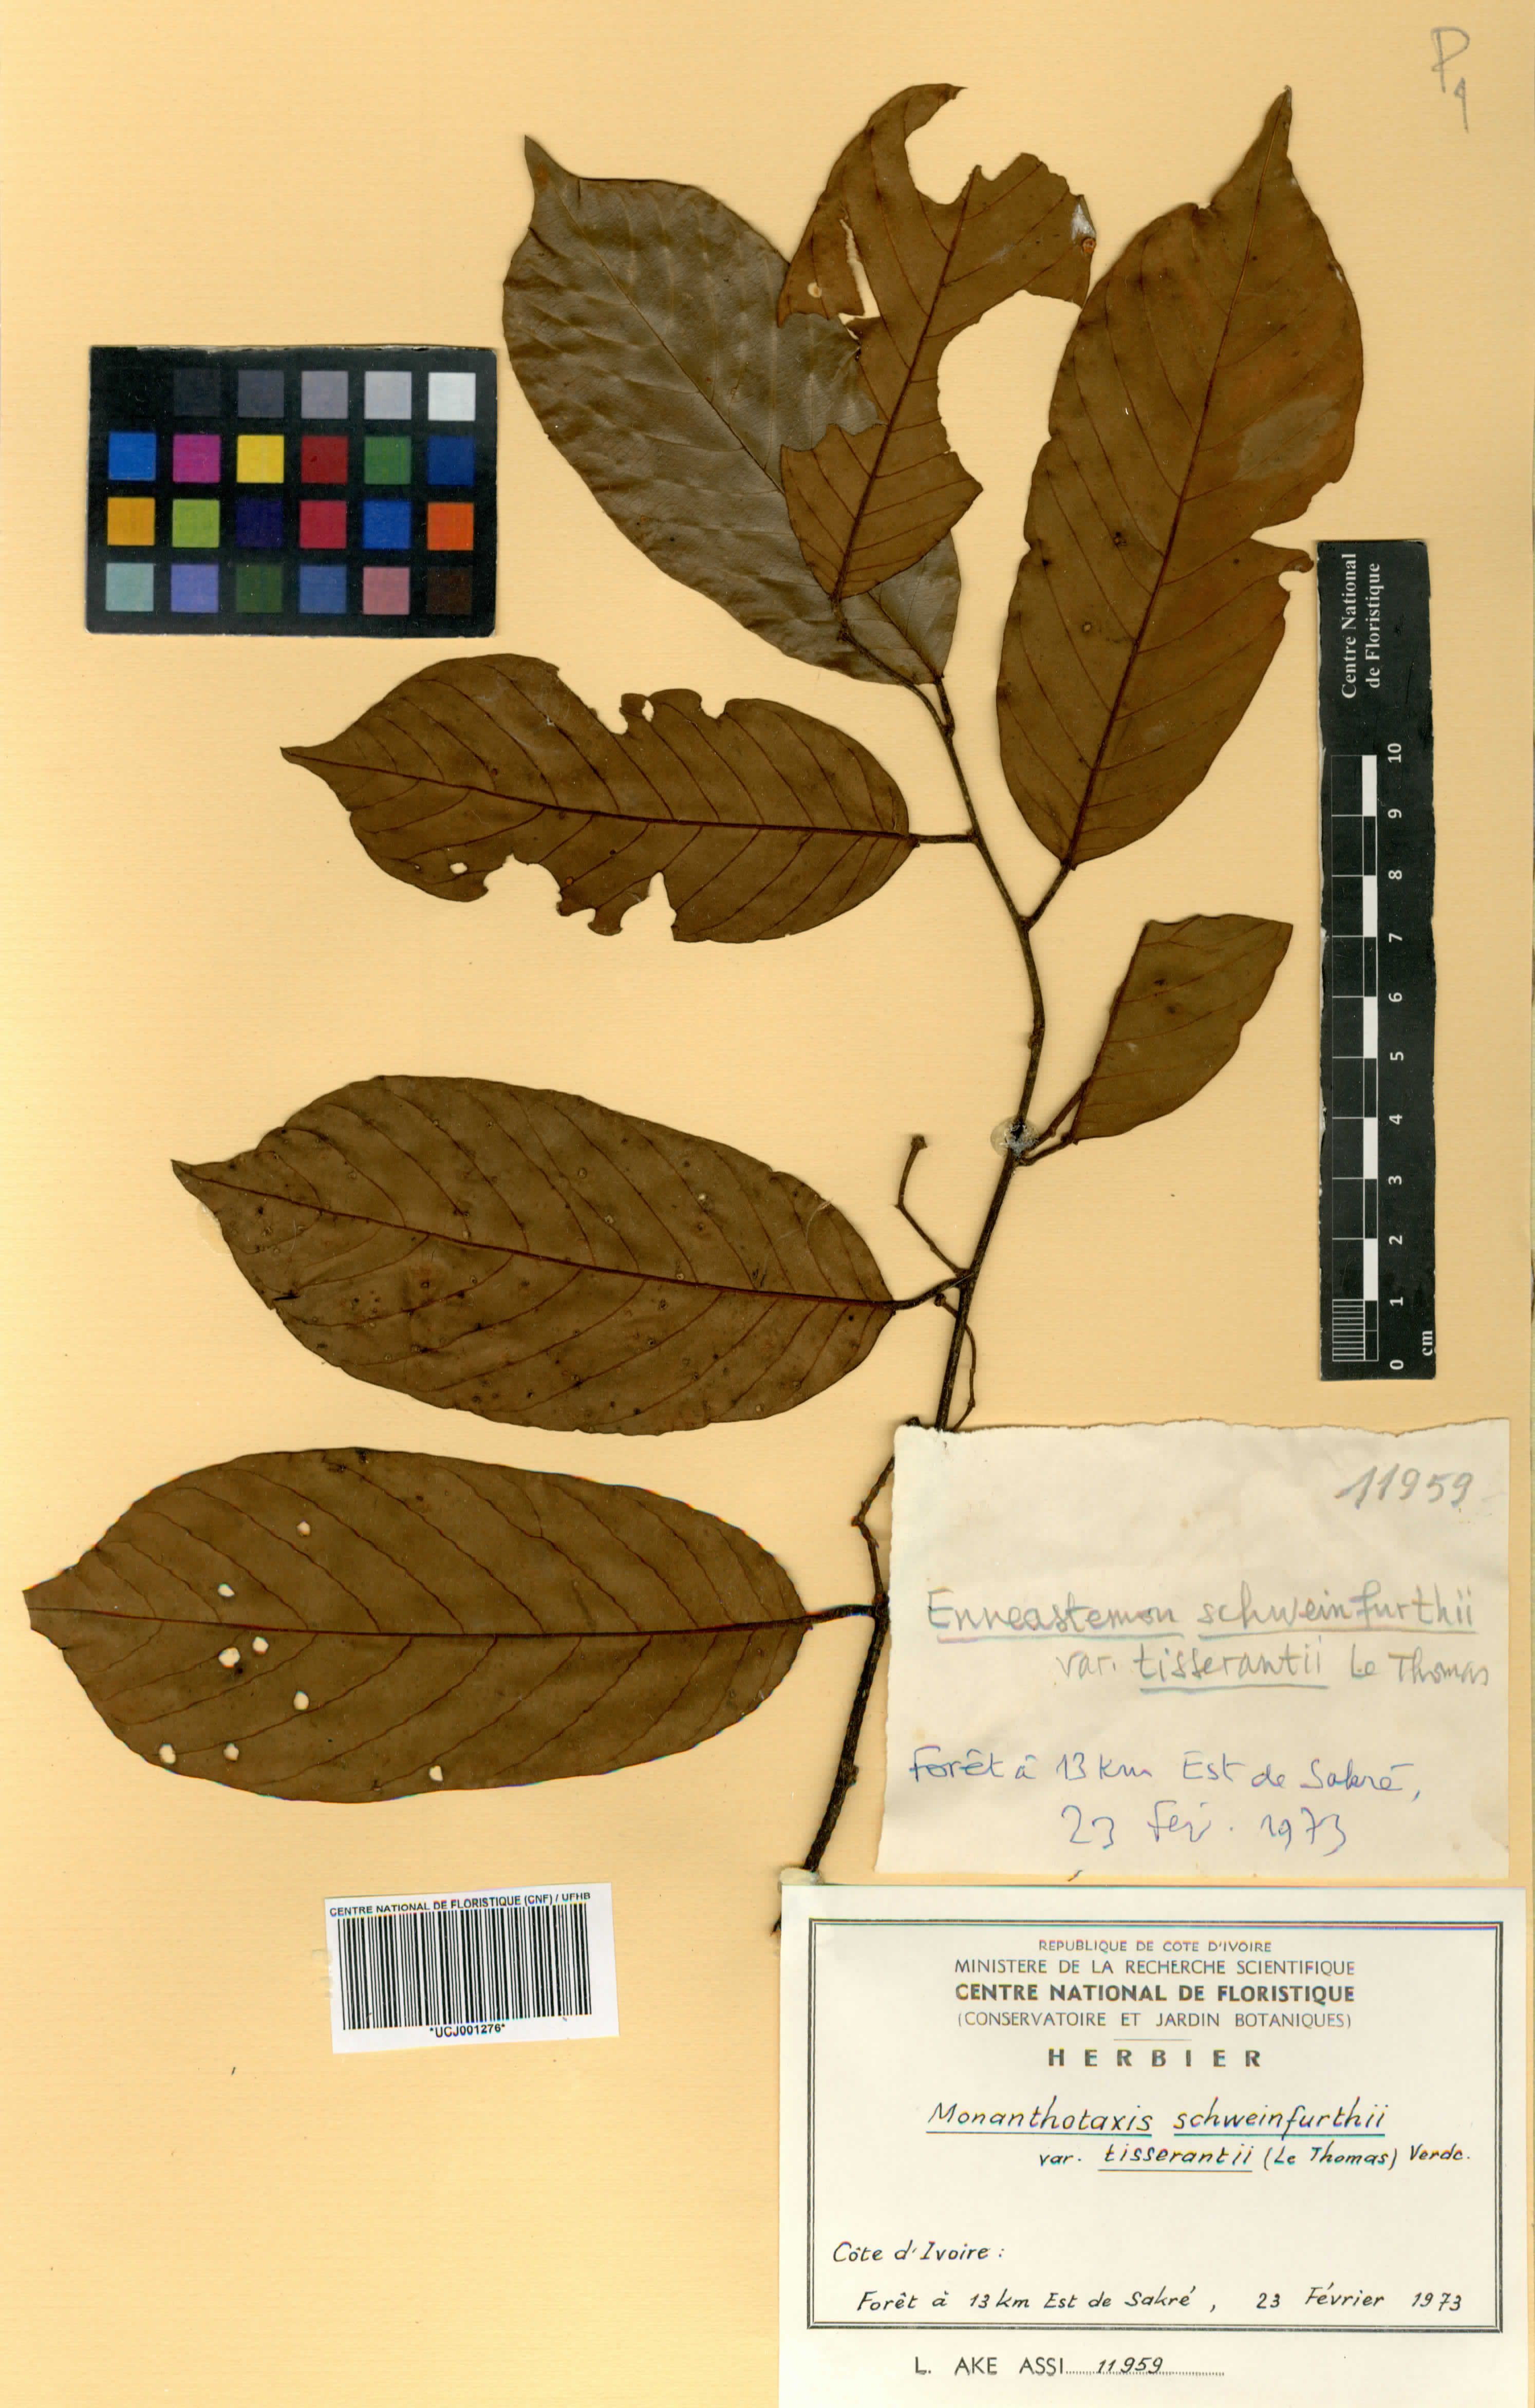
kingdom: Plantae
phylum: Tracheophyta
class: Magnoliopsida
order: Magnoliales
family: Annonaceae
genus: Monanthotaxis
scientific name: Monanthotaxis schweinfurthii
